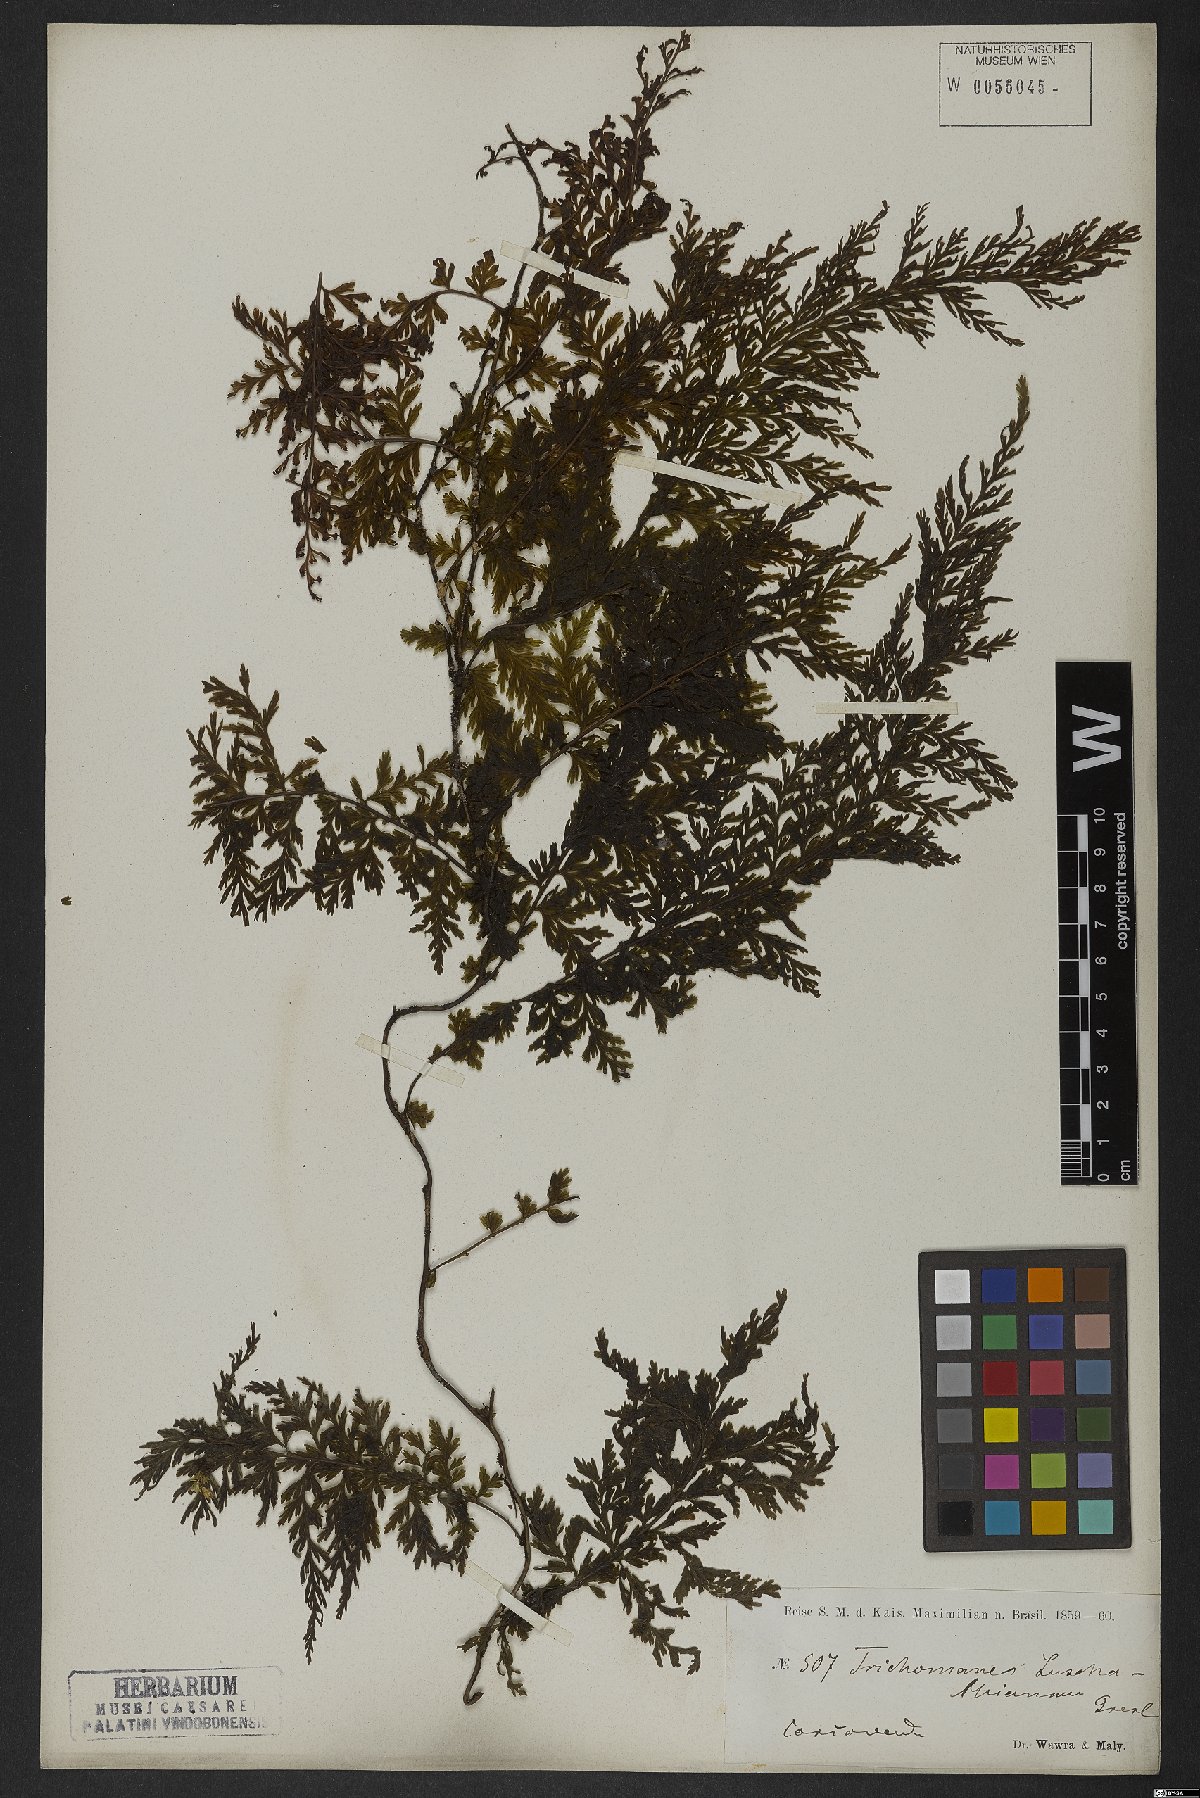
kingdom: Plantae
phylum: Tracheophyta
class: Polypodiopsida
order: Hymenophyllales
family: Hymenophyllaceae
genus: Vandenboschia
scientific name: Vandenboschia radicans
